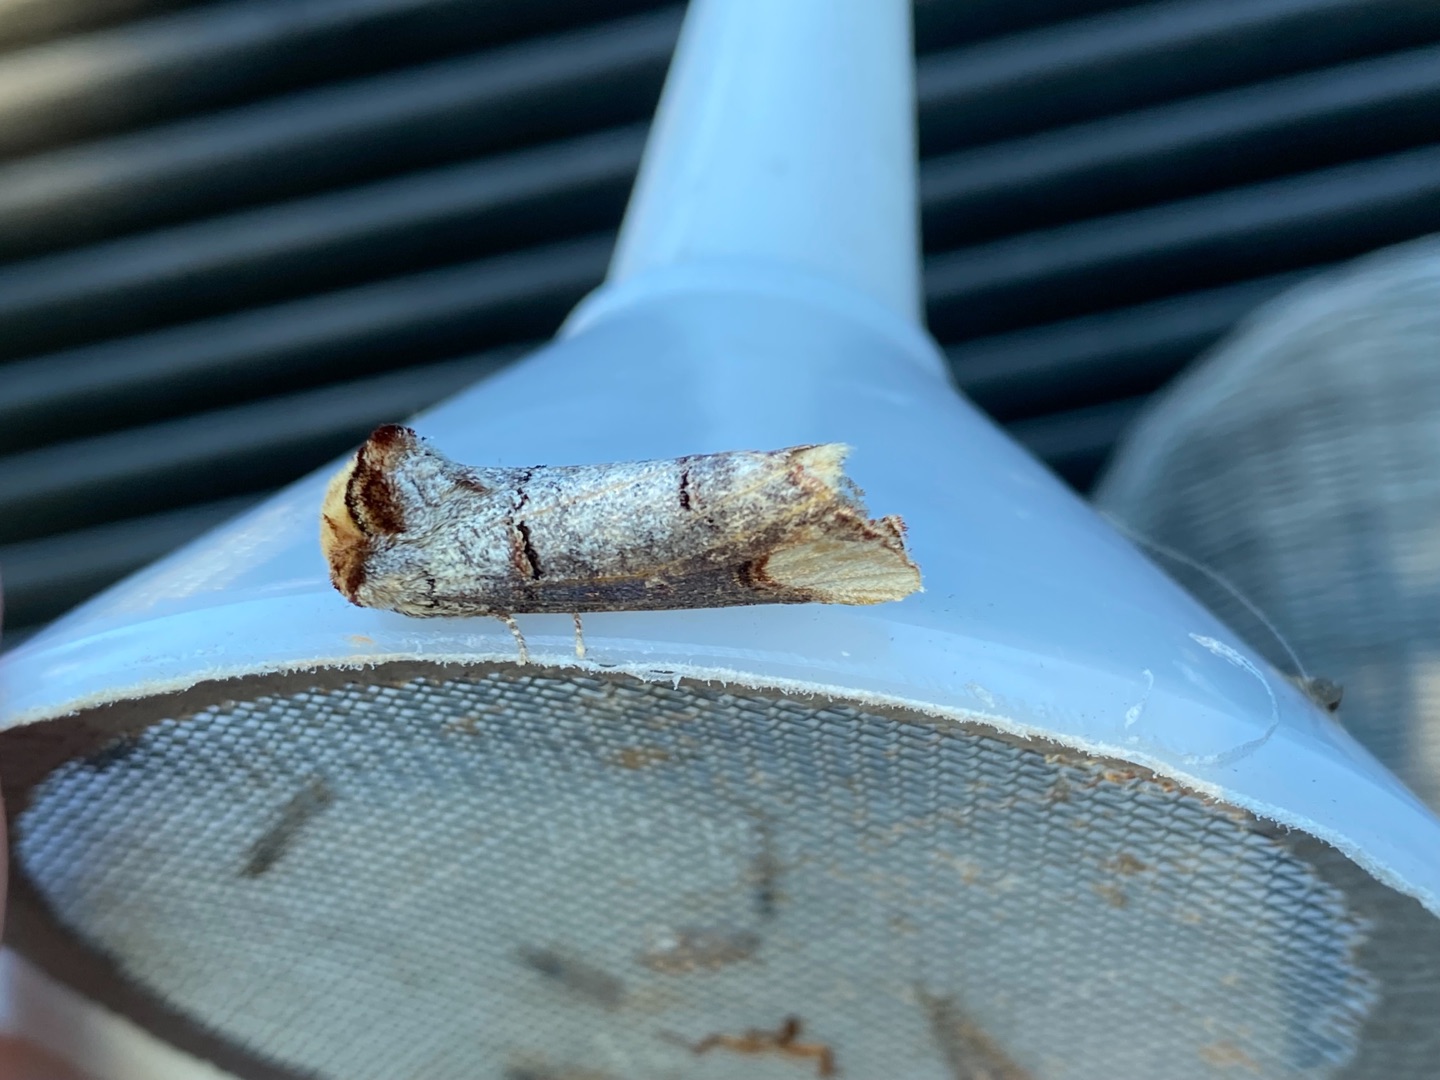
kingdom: Animalia
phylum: Arthropoda
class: Insecta
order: Lepidoptera
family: Notodontidae
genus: Phalera
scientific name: Phalera bucephala
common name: Måneplet
